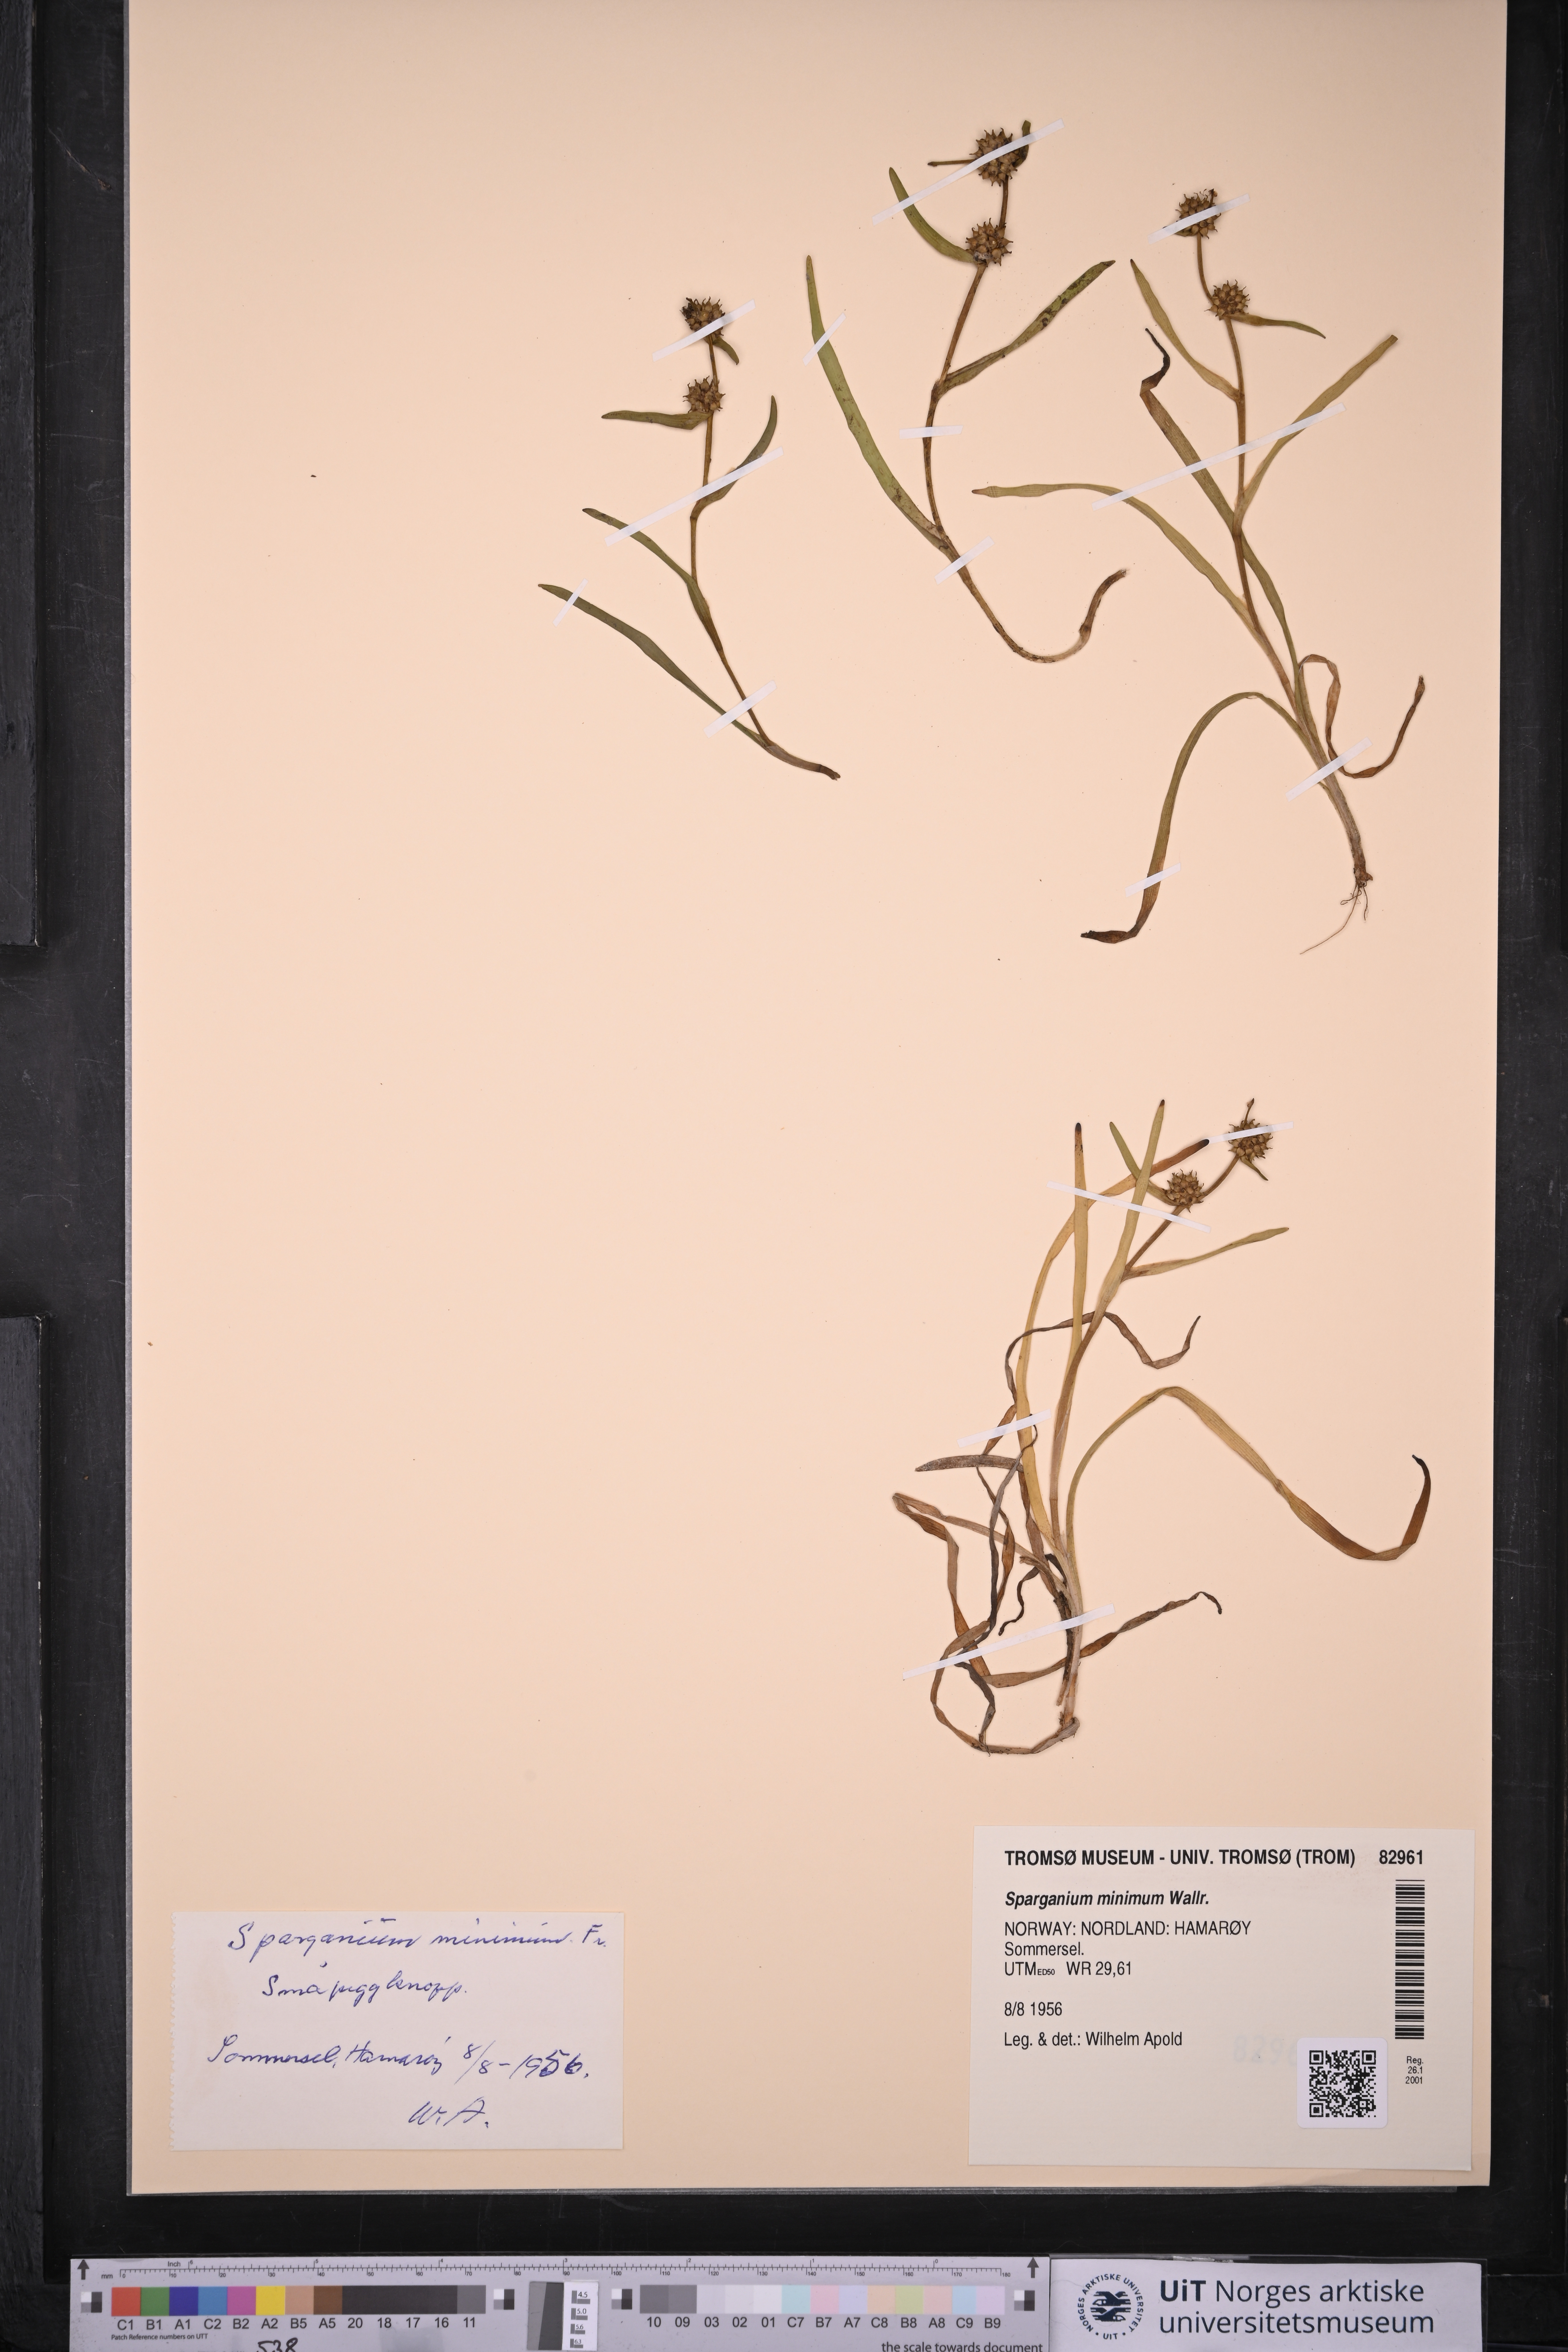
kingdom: Plantae
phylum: Tracheophyta
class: Liliopsida
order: Poales
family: Typhaceae
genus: Sparganium
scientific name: Sparganium natans
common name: Least bur-reed
